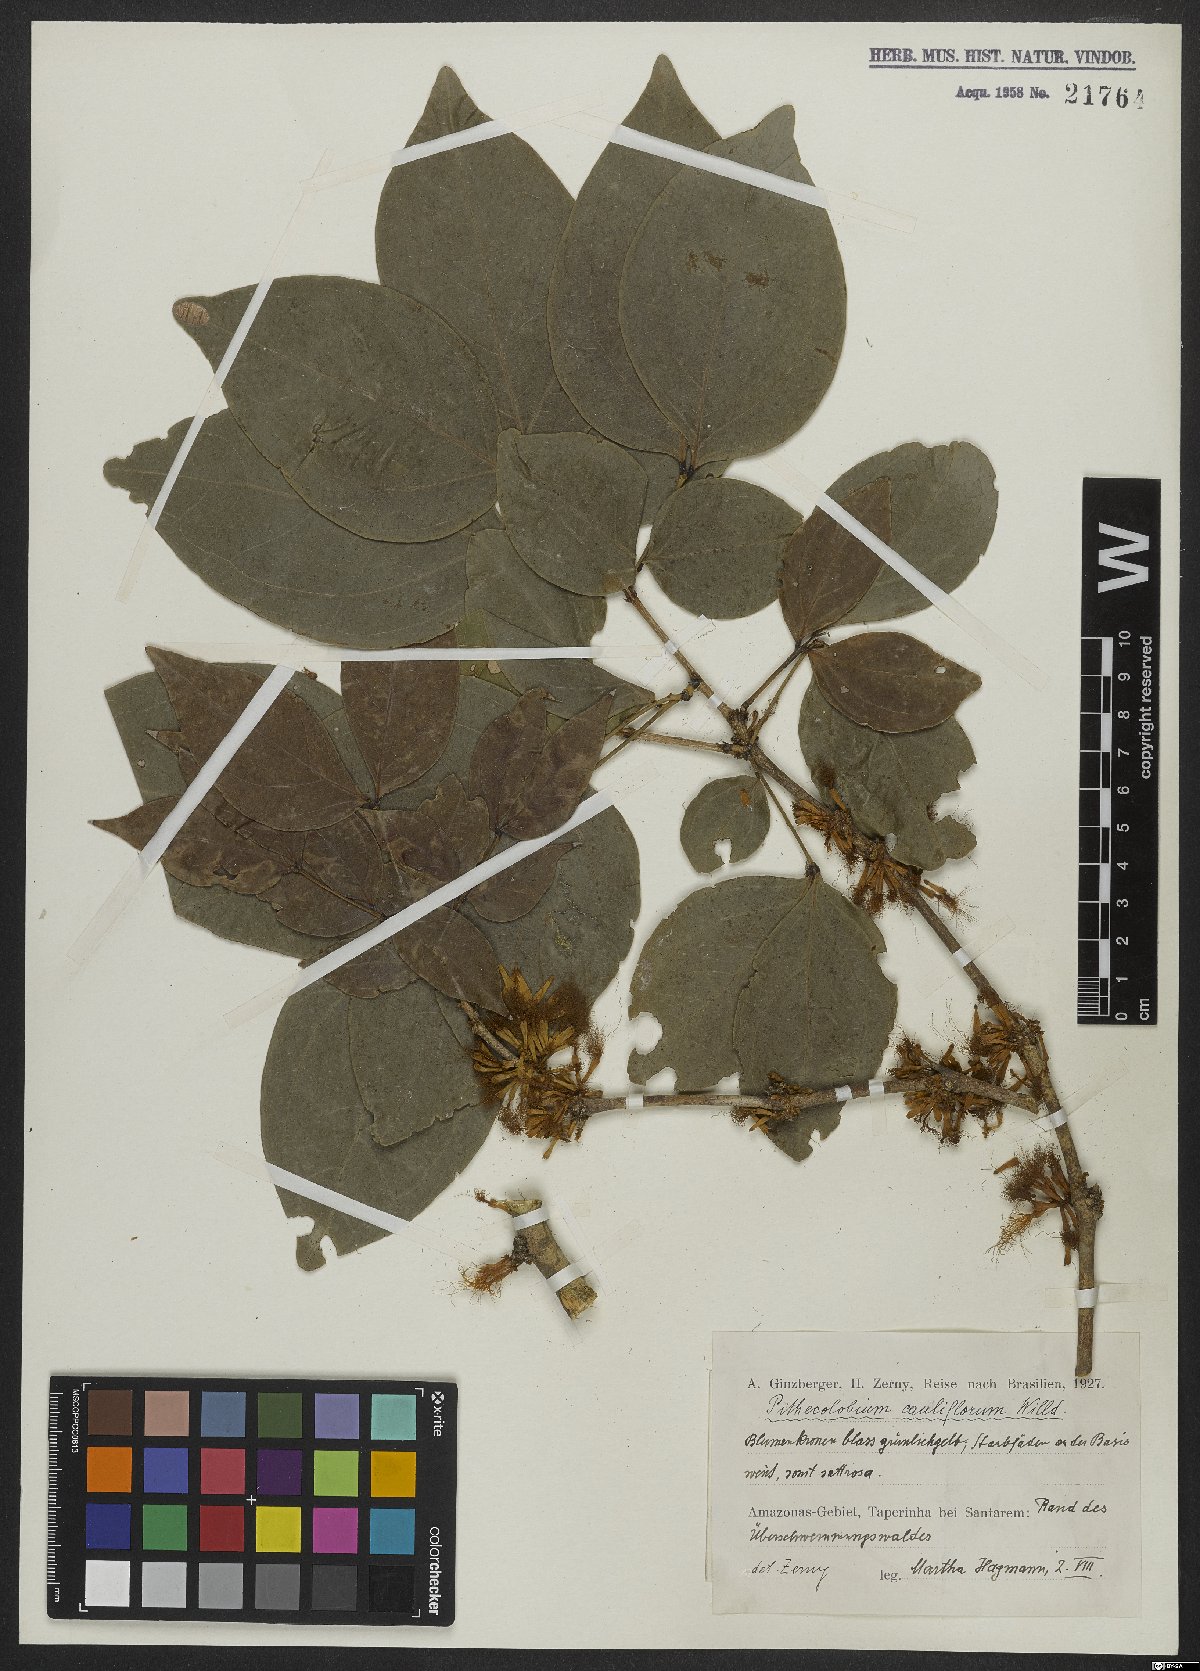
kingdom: Plantae
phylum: Tracheophyta
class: Magnoliopsida
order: Fabales
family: Fabaceae
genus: Zygia
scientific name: Zygia cauliflora
